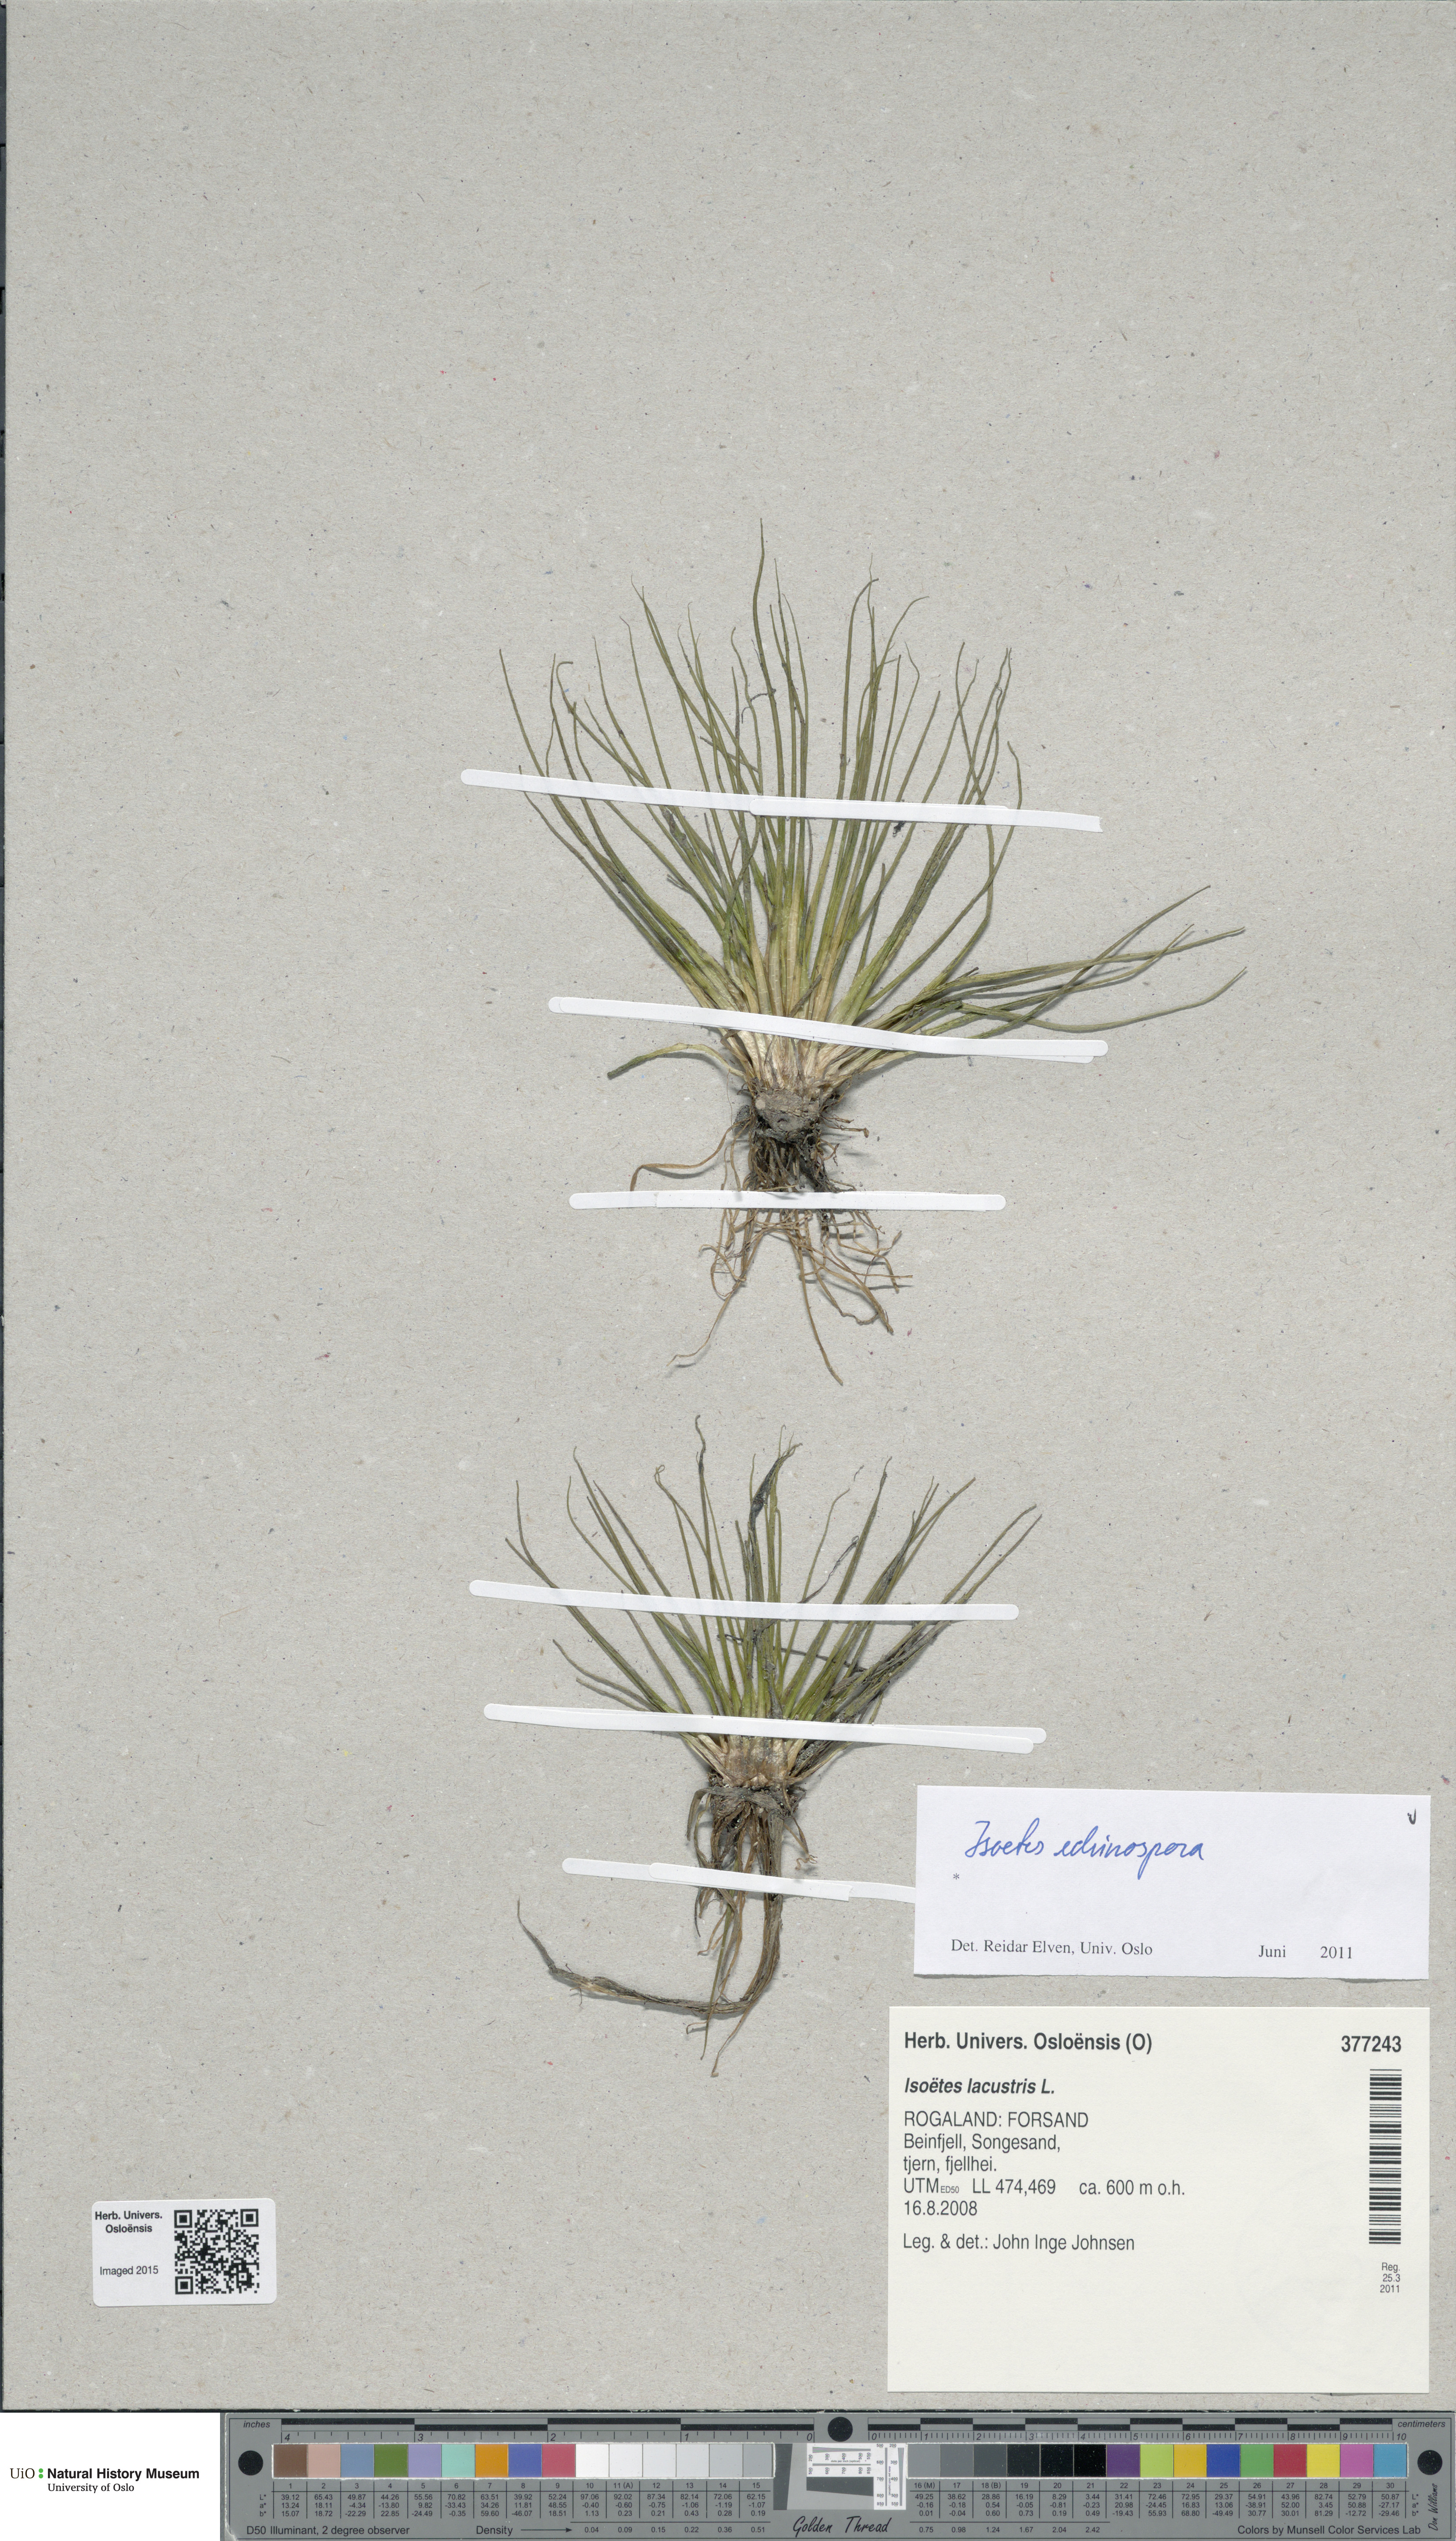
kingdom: Plantae
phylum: Tracheophyta
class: Lycopodiopsida
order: Isoetales
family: Isoetaceae
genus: Isoetes
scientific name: Isoetes echinospora
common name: Spring quillwort
